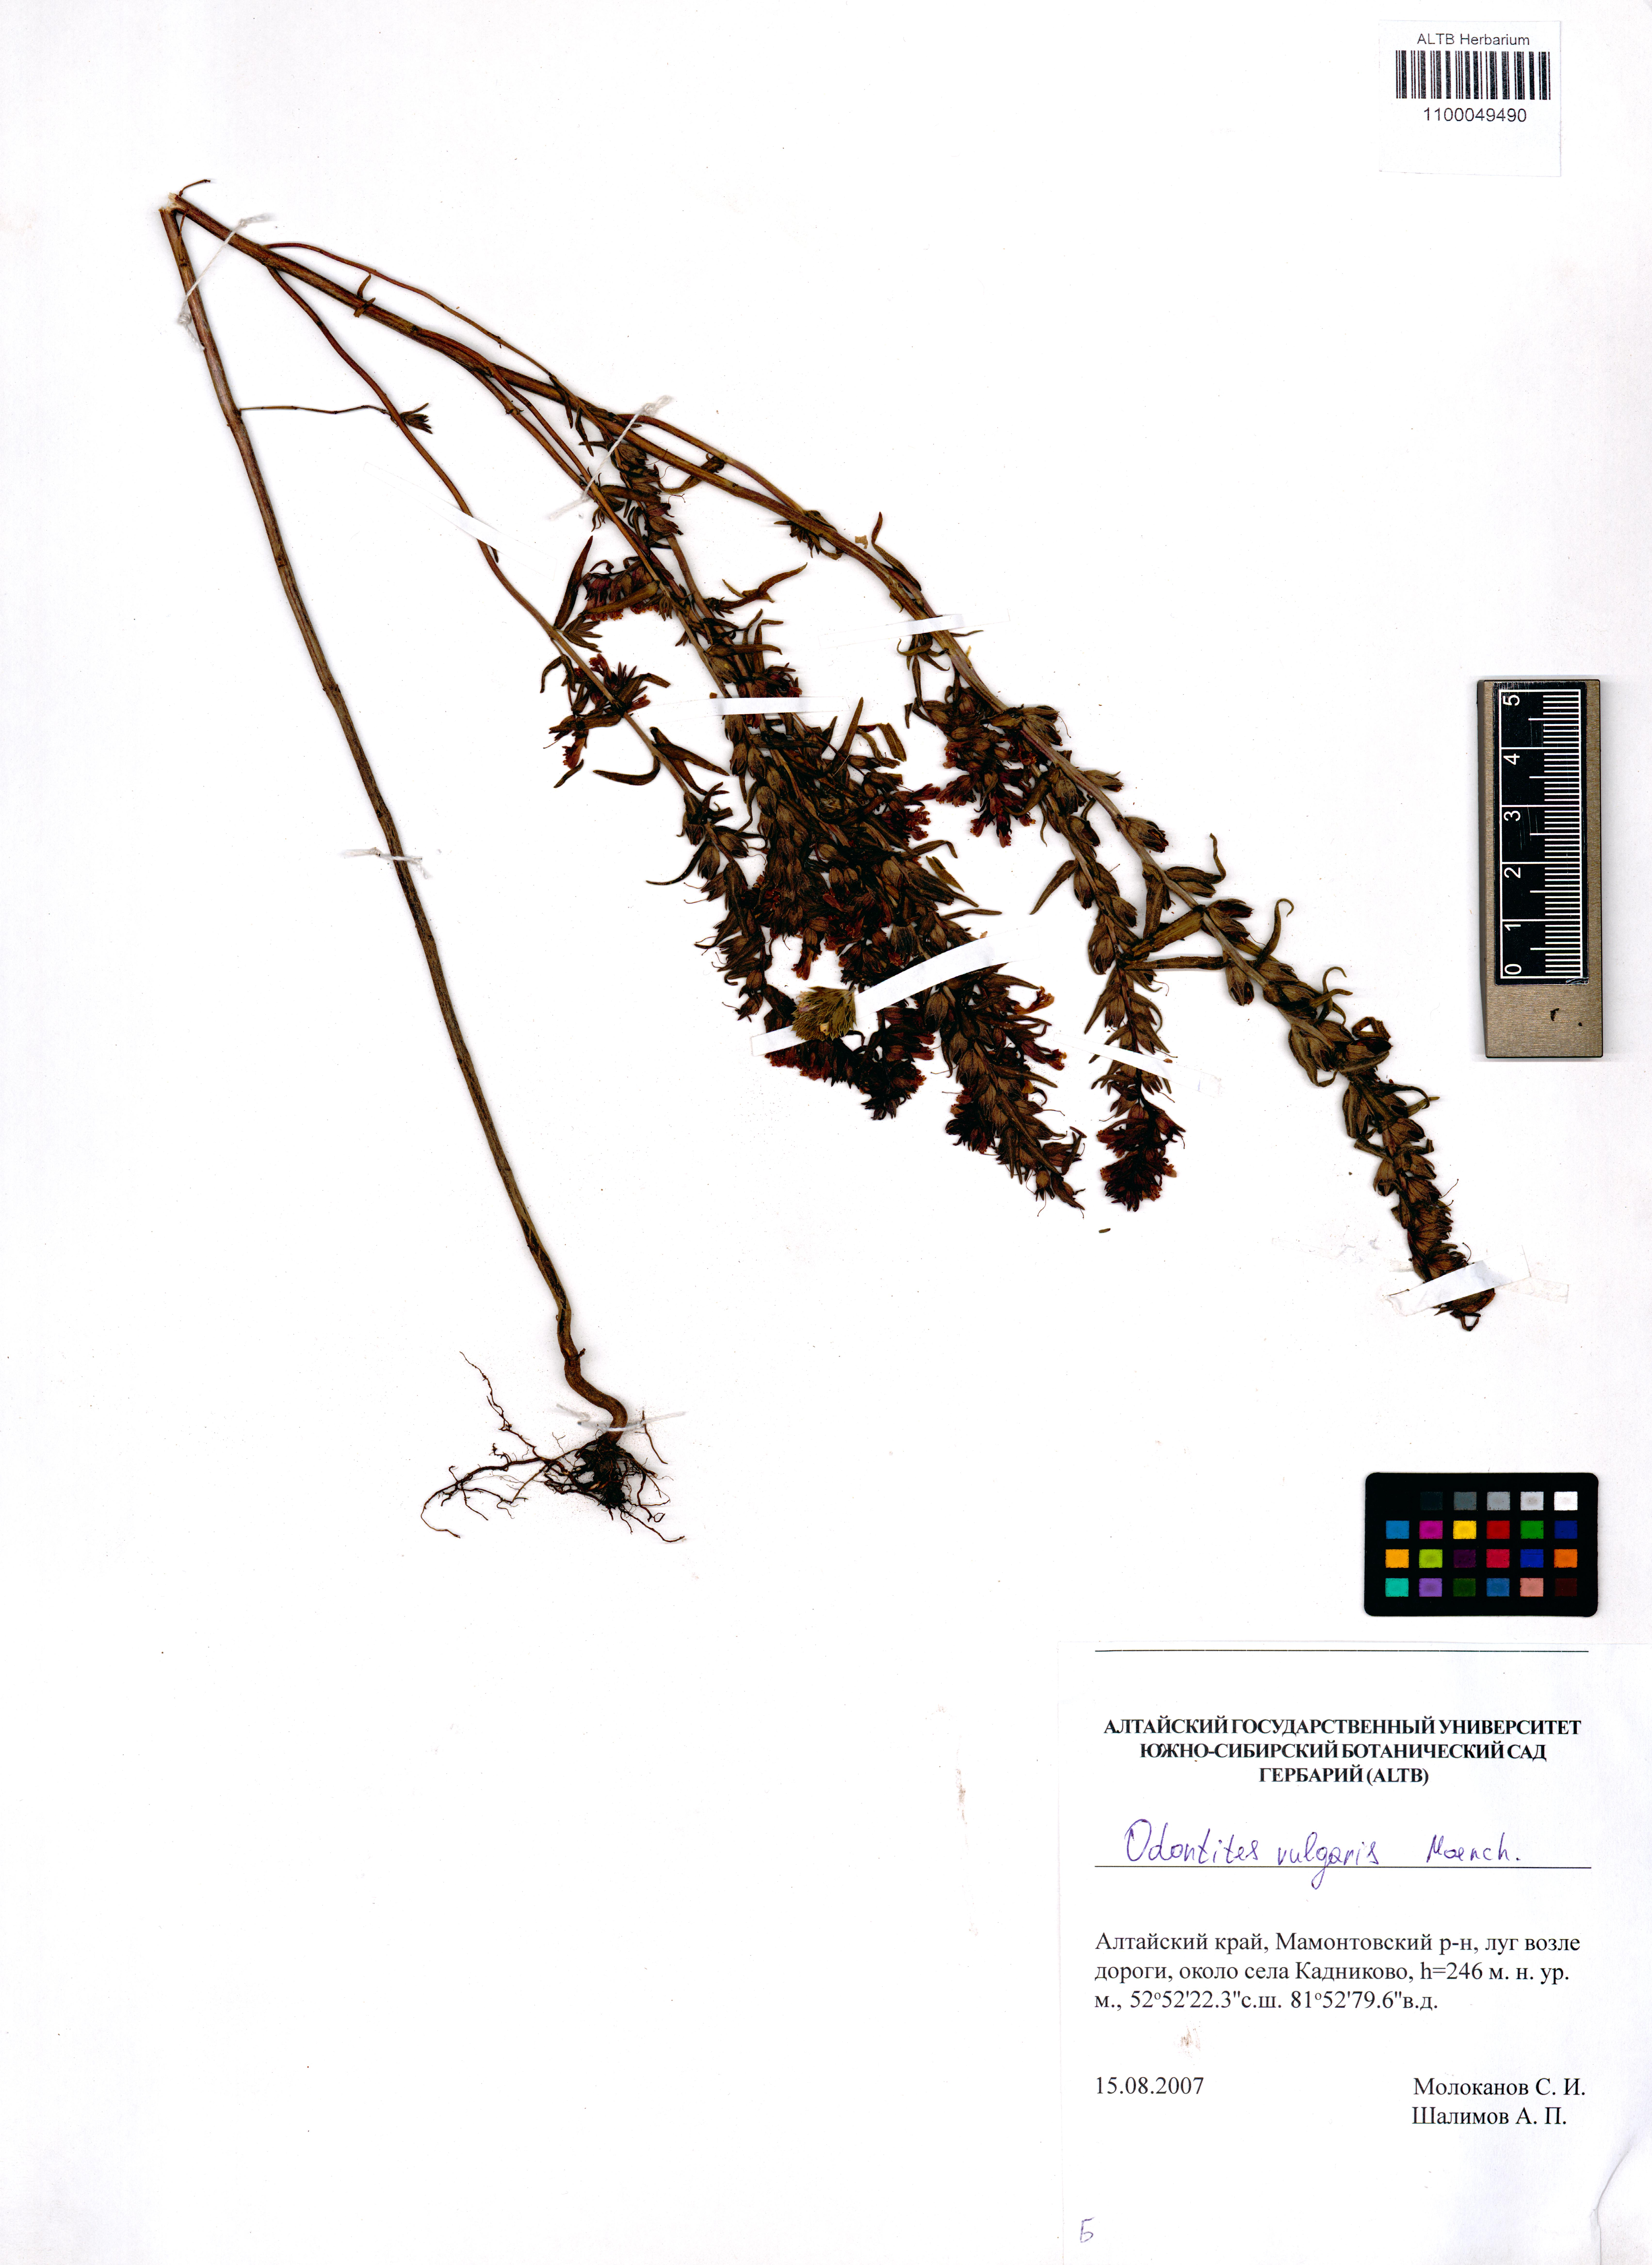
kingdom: Plantae
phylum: Tracheophyta
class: Magnoliopsida
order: Lamiales
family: Orobanchaceae
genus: Odontites
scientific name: Odontites vulgaris
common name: Broomrape
